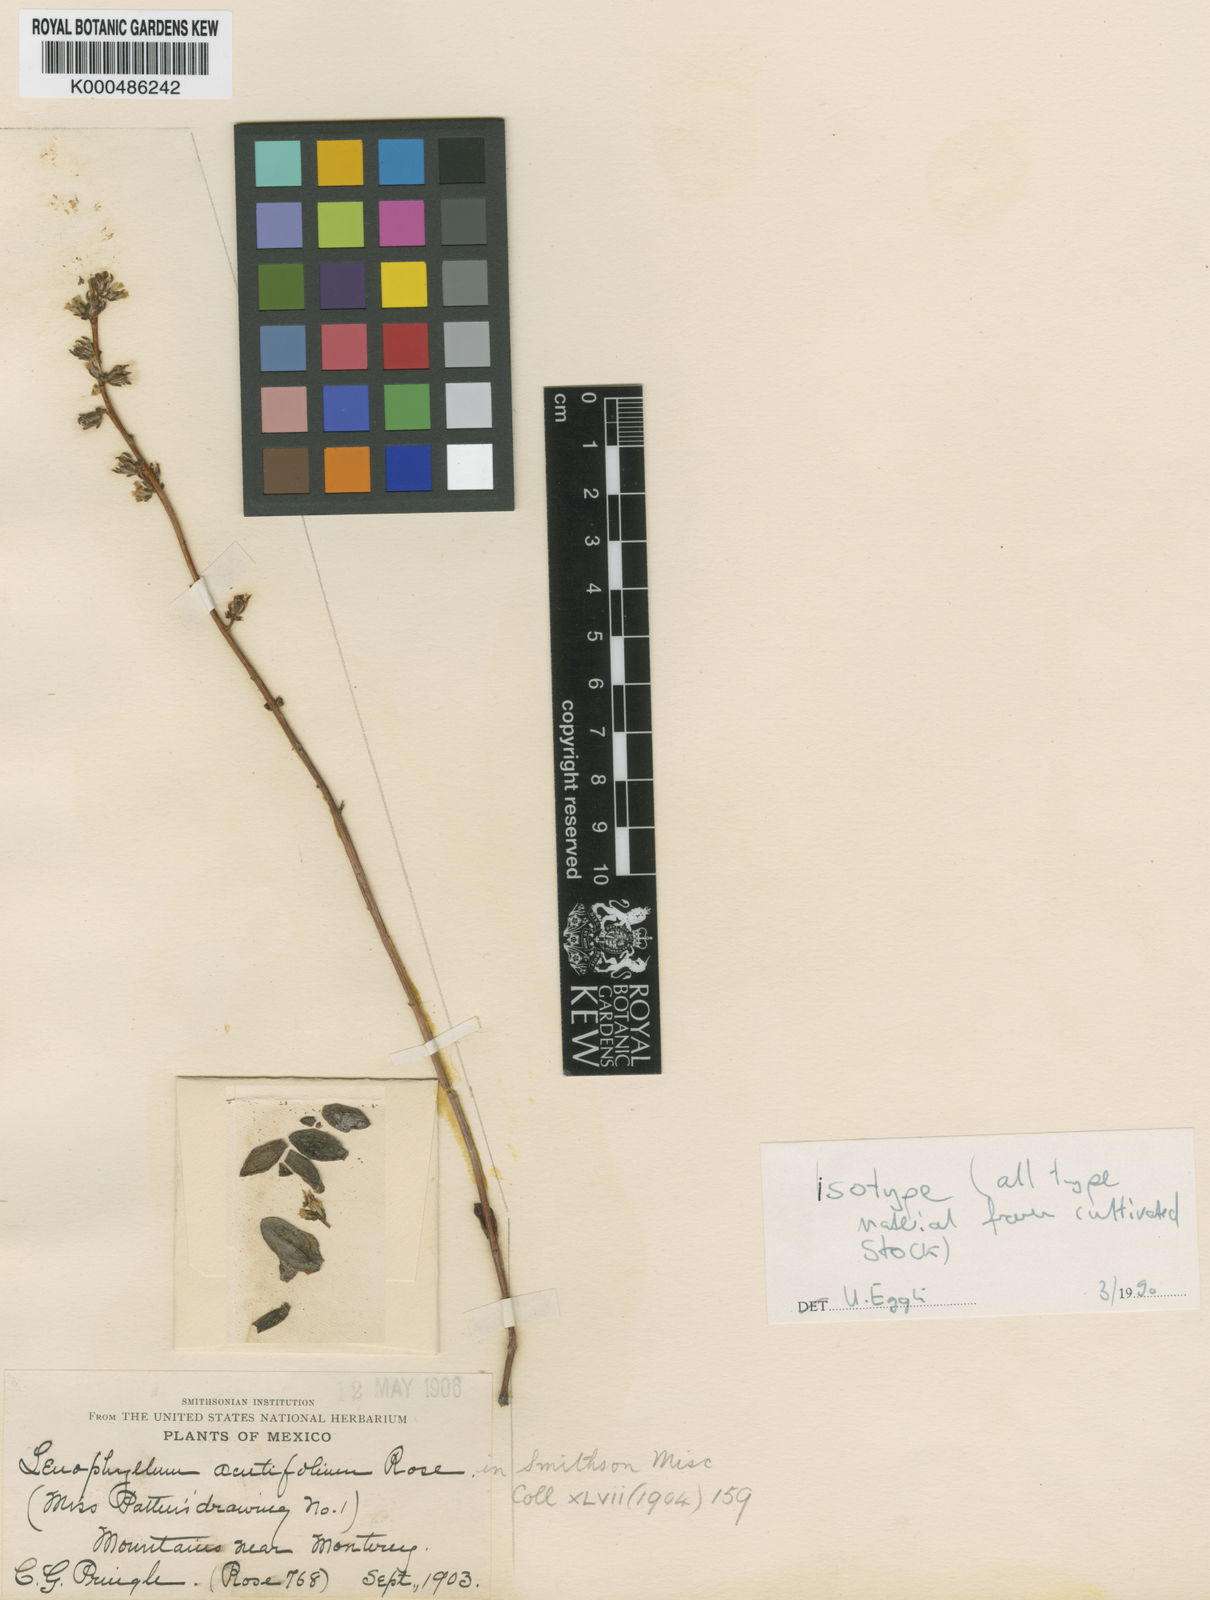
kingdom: Plantae
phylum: Tracheophyta
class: Magnoliopsida
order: Saxifragales
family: Crassulaceae
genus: Lenophyllum
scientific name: Lenophyllum acutifolium
